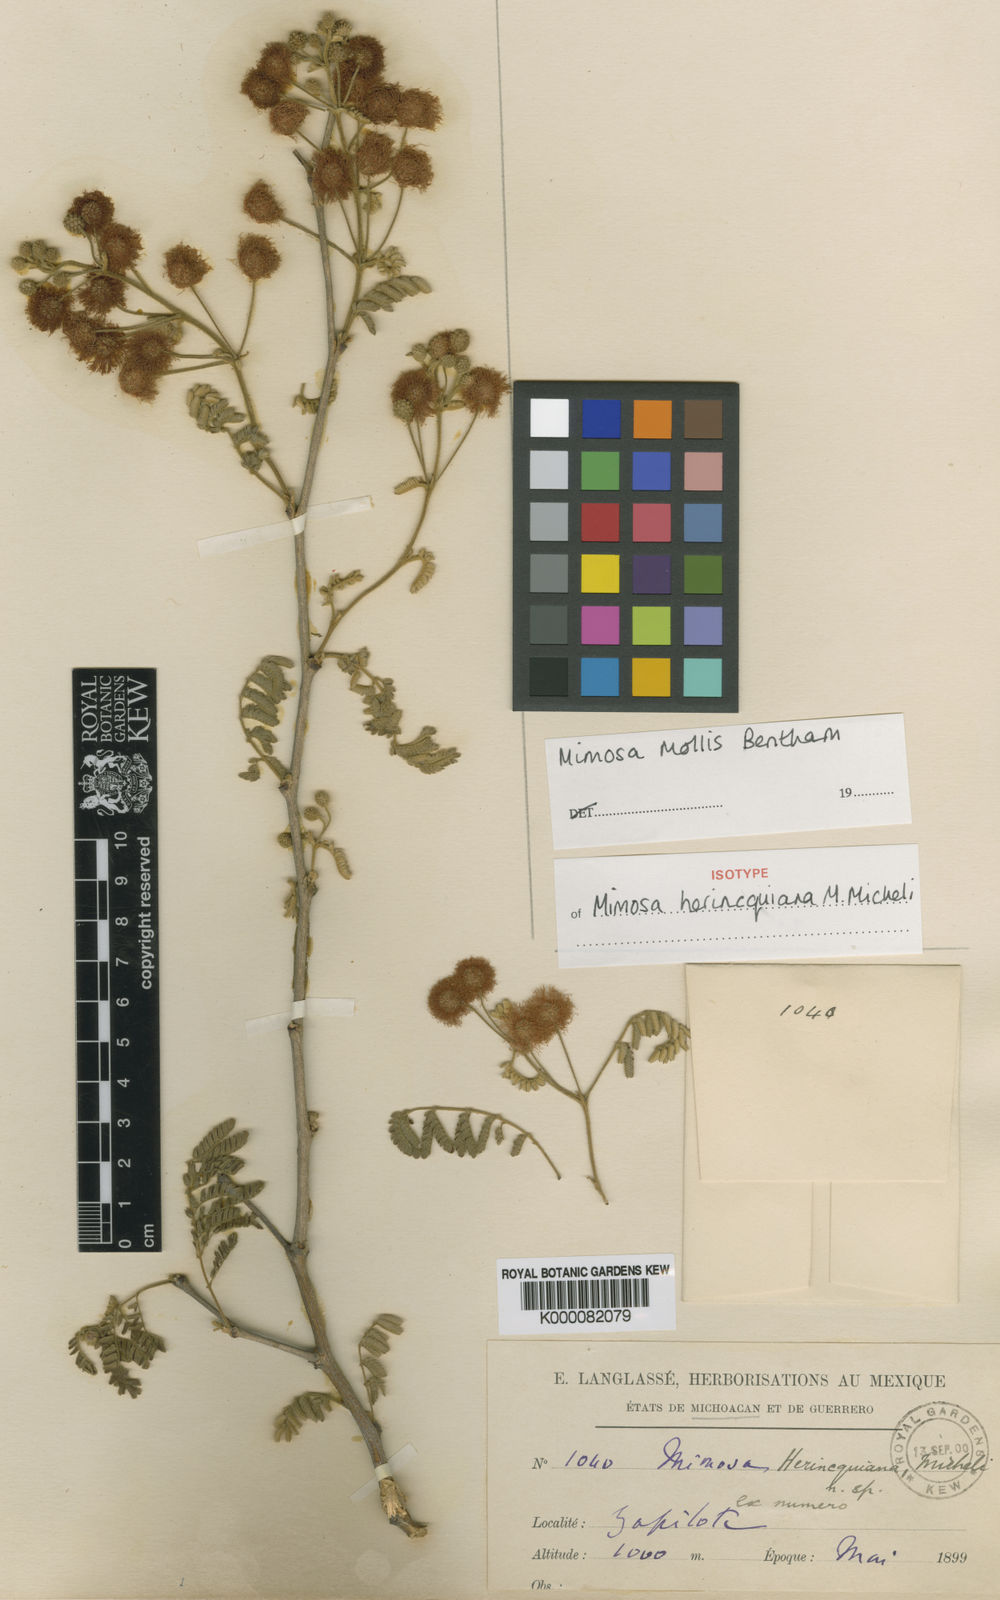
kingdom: Plantae
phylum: Tracheophyta
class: Magnoliopsida
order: Fabales
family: Fabaceae
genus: Mimosa
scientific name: Mimosa mollis
